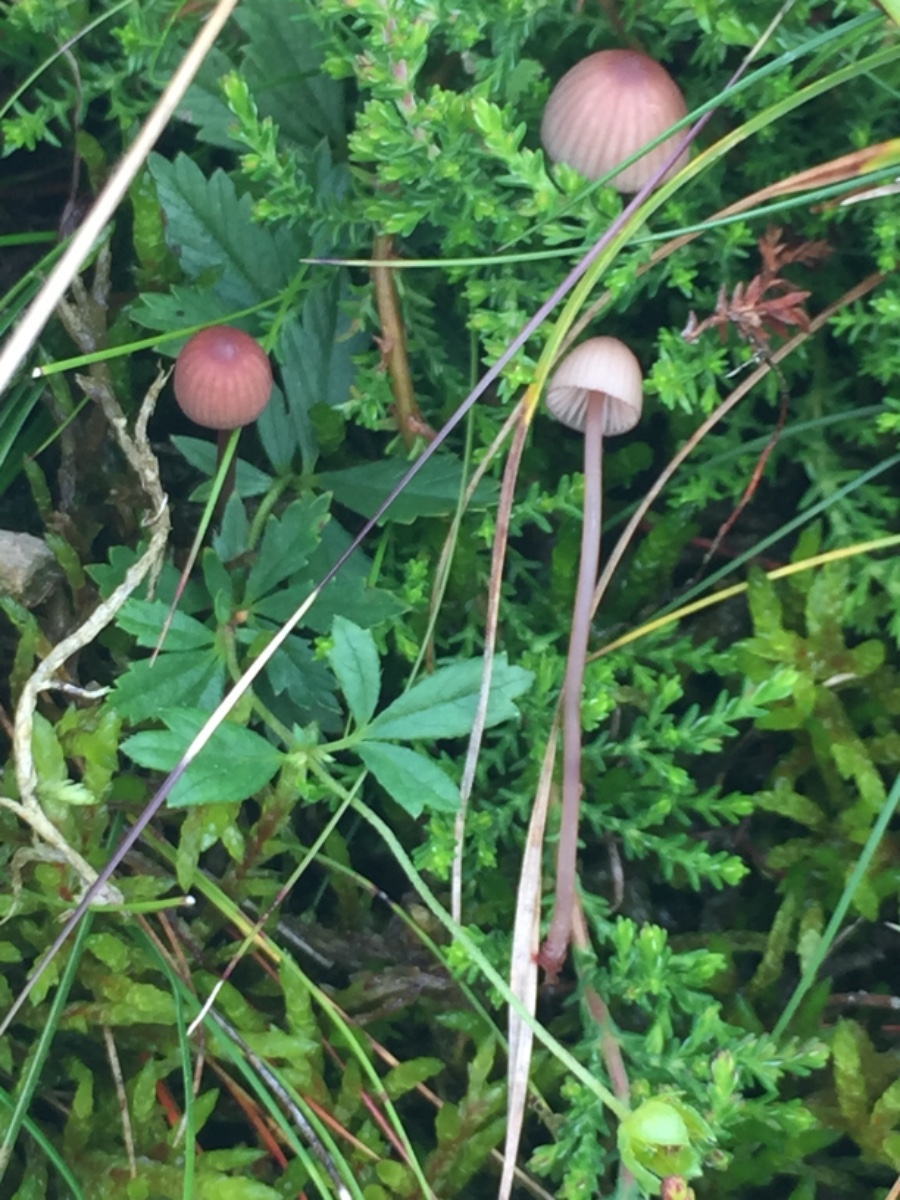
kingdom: Fungi
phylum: Basidiomycota
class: Agaricomycetes
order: Agaricales
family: Mycenaceae
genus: Mycena
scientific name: Mycena sanguinolenta
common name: rødmælket huesvamp
